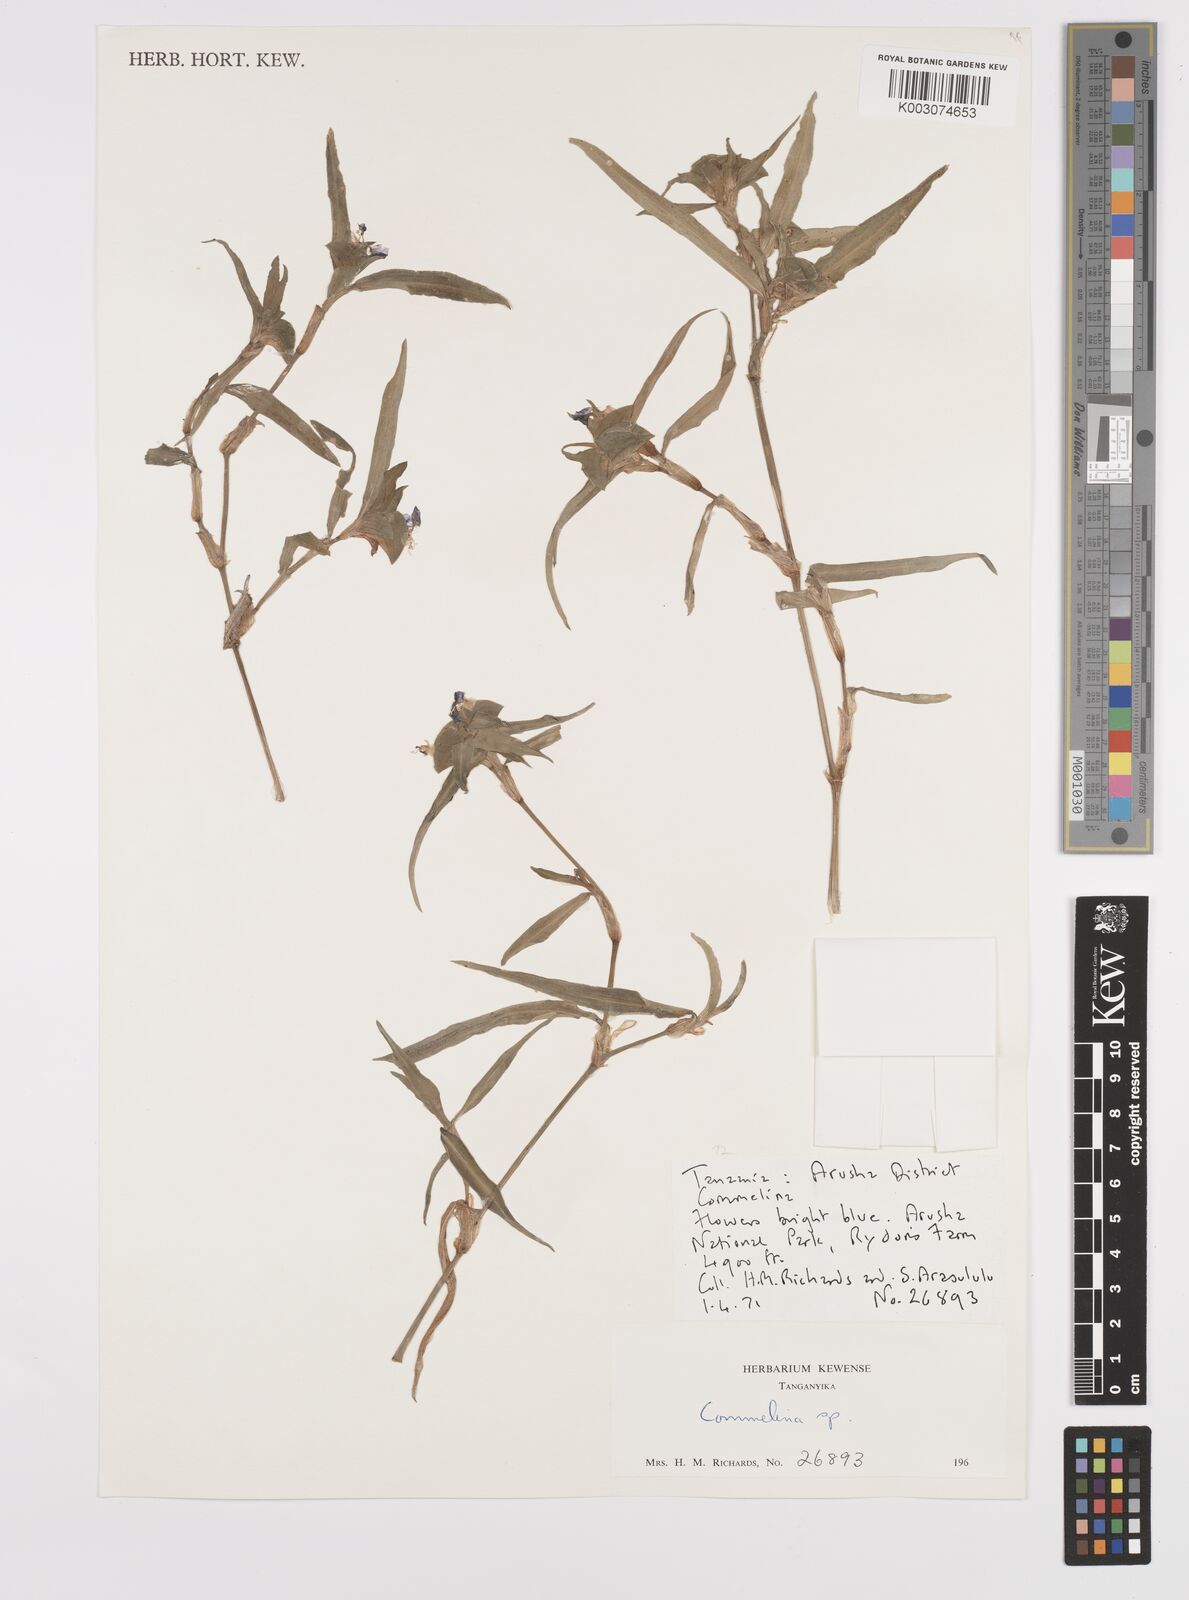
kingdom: Plantae
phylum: Tracheophyta
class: Liliopsida
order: Commelinales
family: Commelinaceae
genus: Commelina
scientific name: Commelina erecta
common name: Blousel blommetjie
